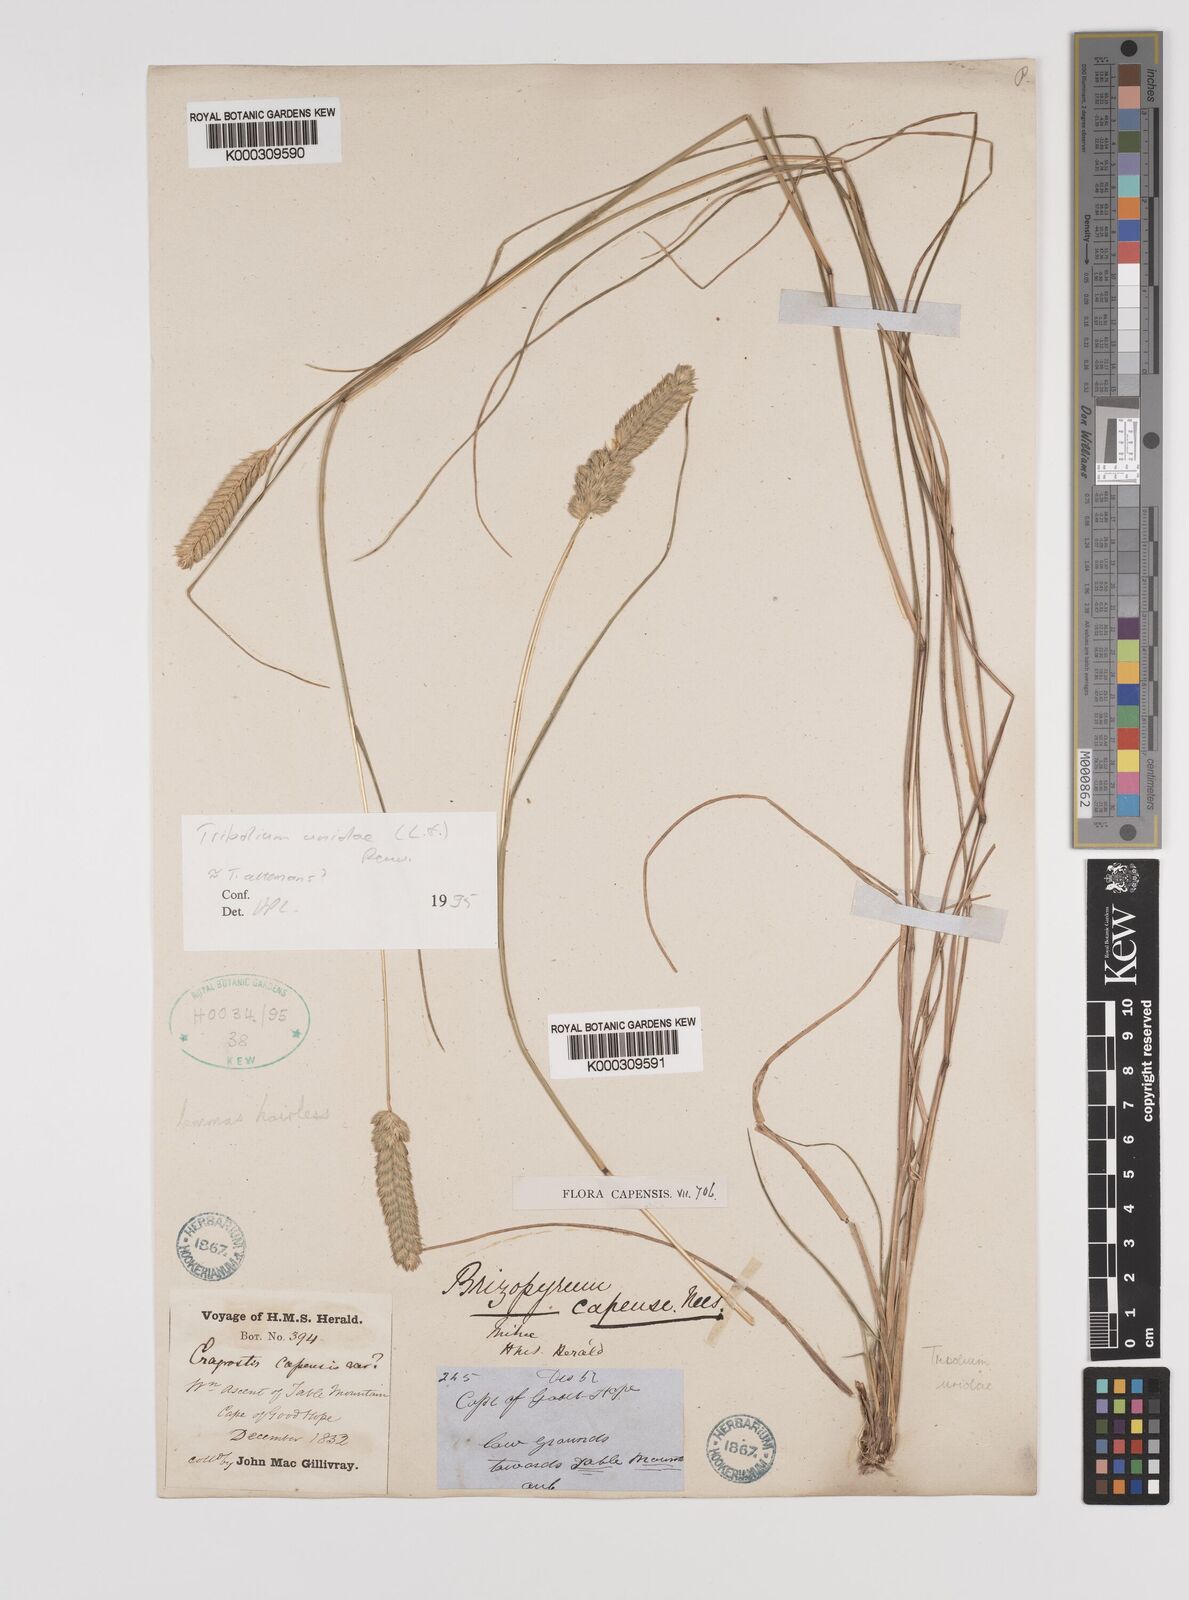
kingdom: Plantae
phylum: Tracheophyta
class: Liliopsida
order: Poales
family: Poaceae
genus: Tribolium
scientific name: Tribolium uniolae
